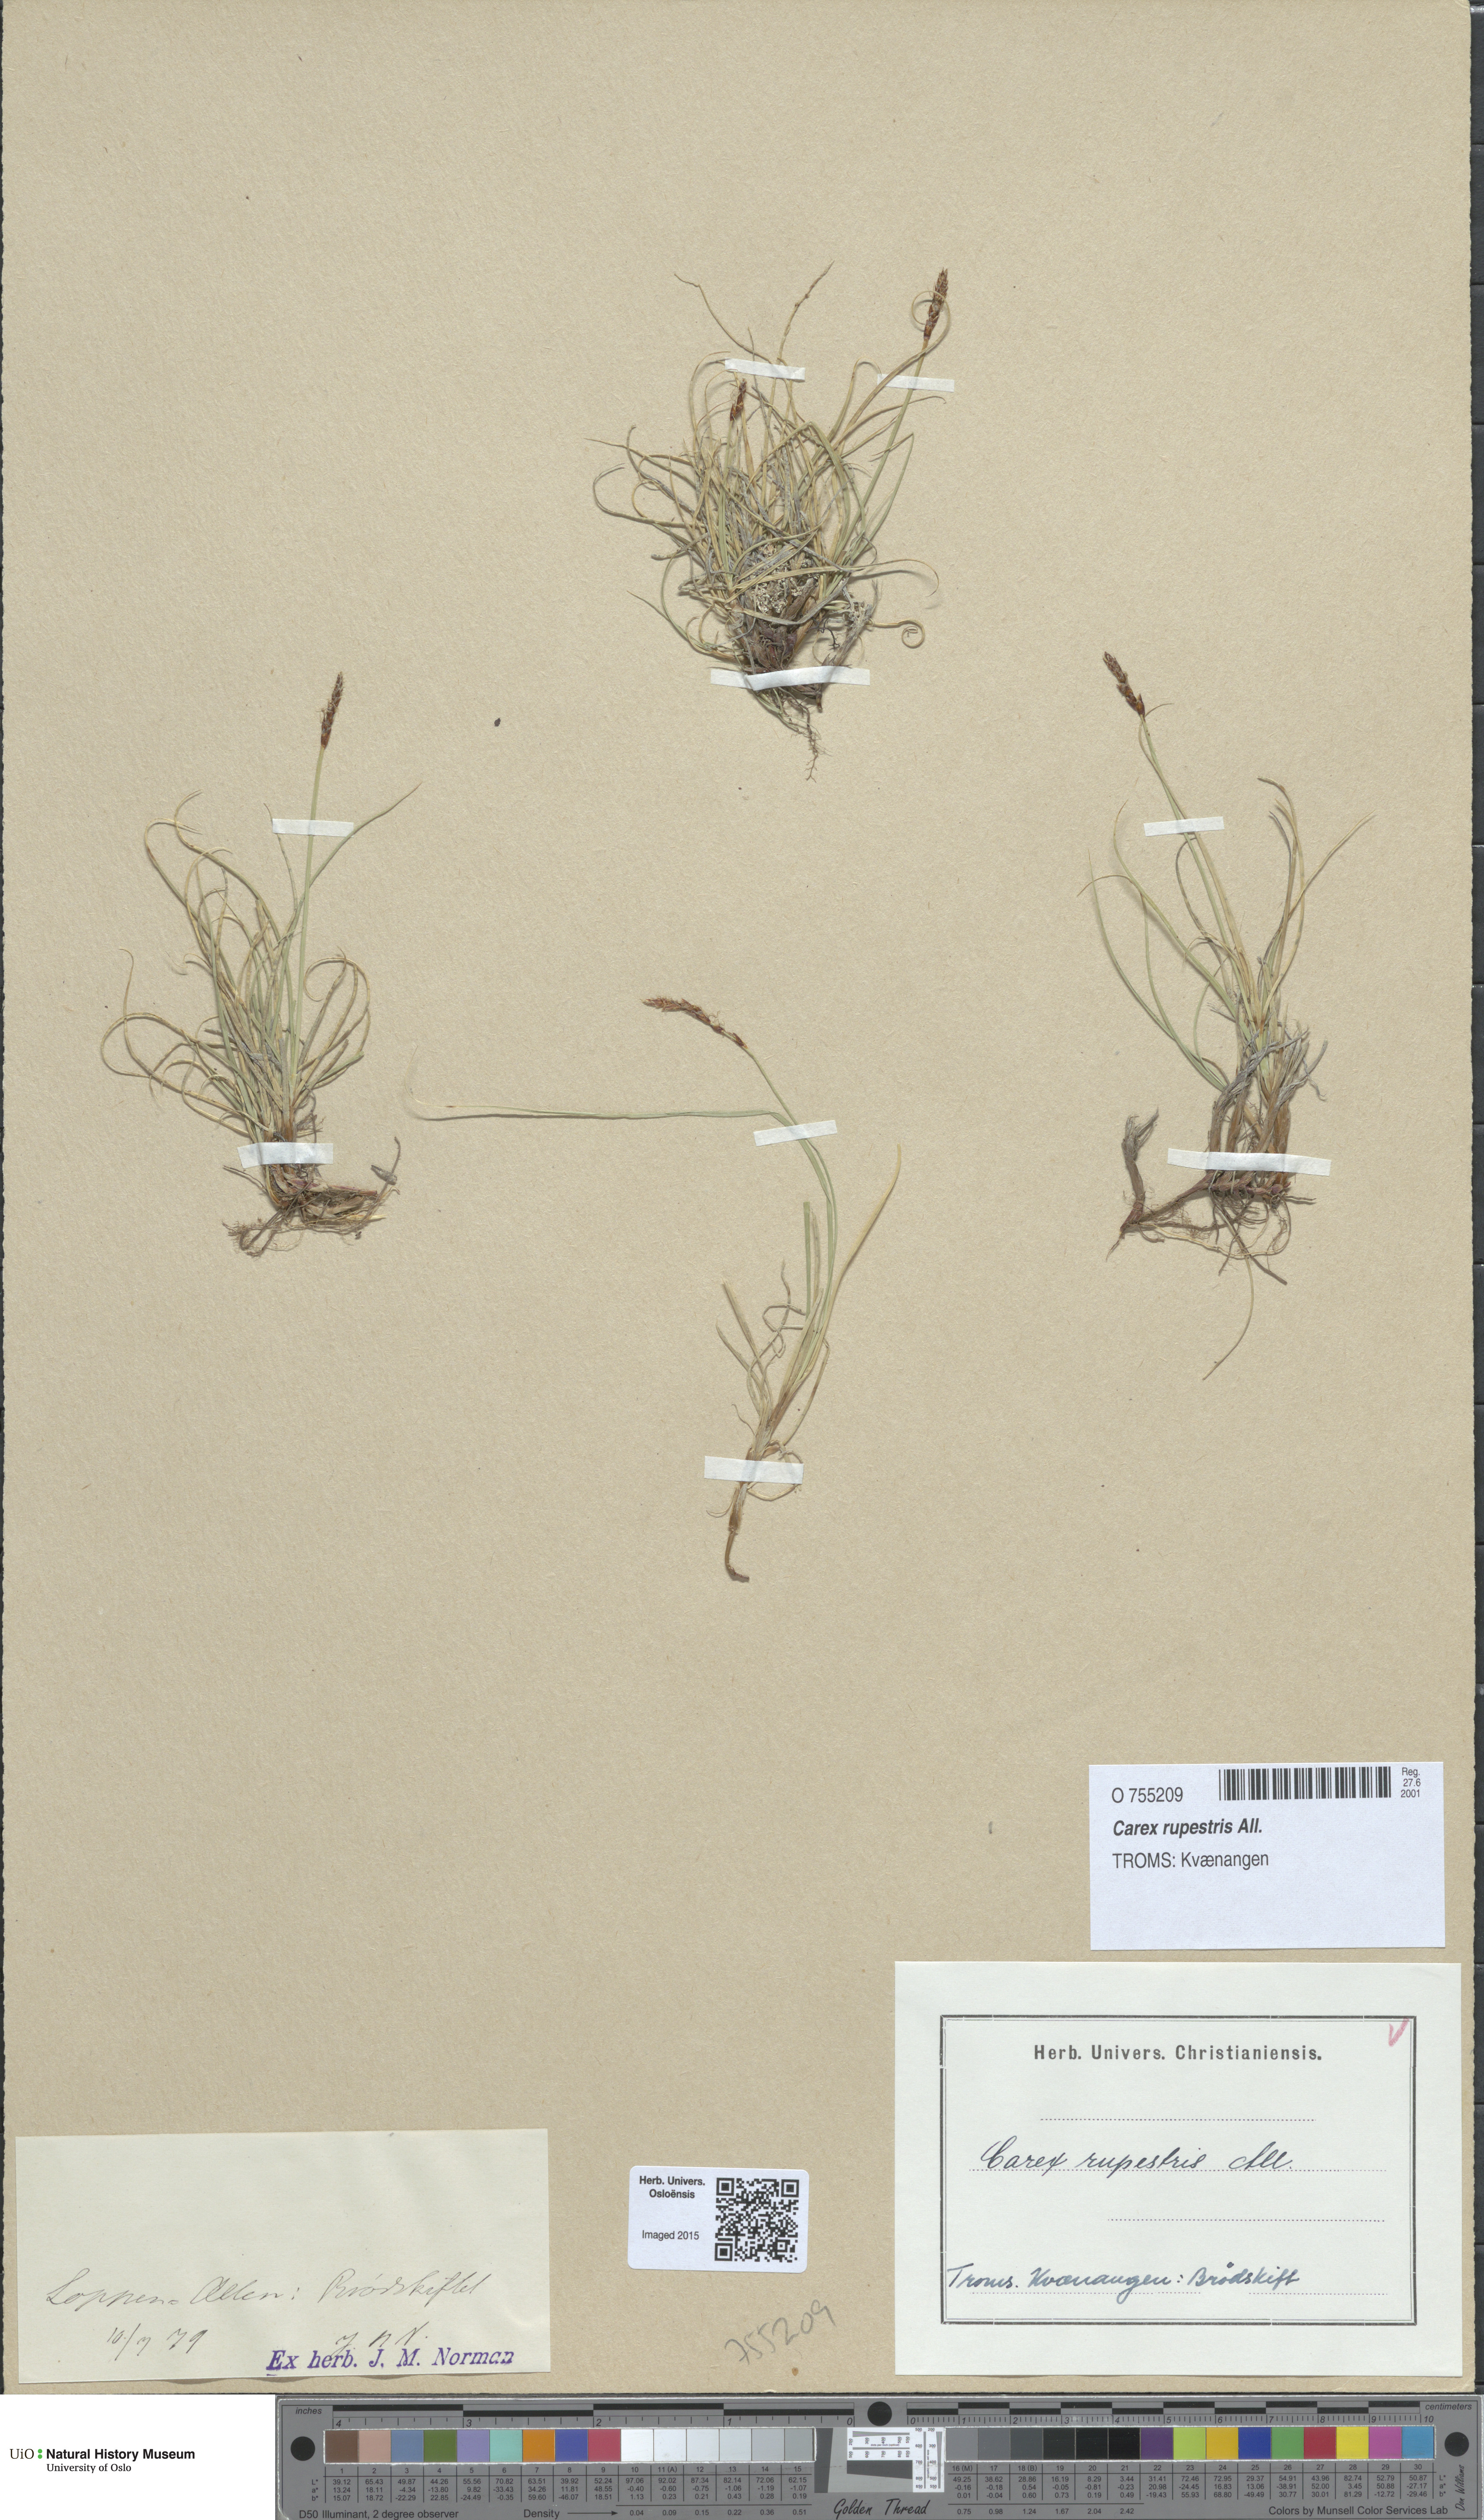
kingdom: Plantae
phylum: Tracheophyta
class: Liliopsida
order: Poales
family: Cyperaceae
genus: Carex
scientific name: Carex rupestris
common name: Rock sedge
